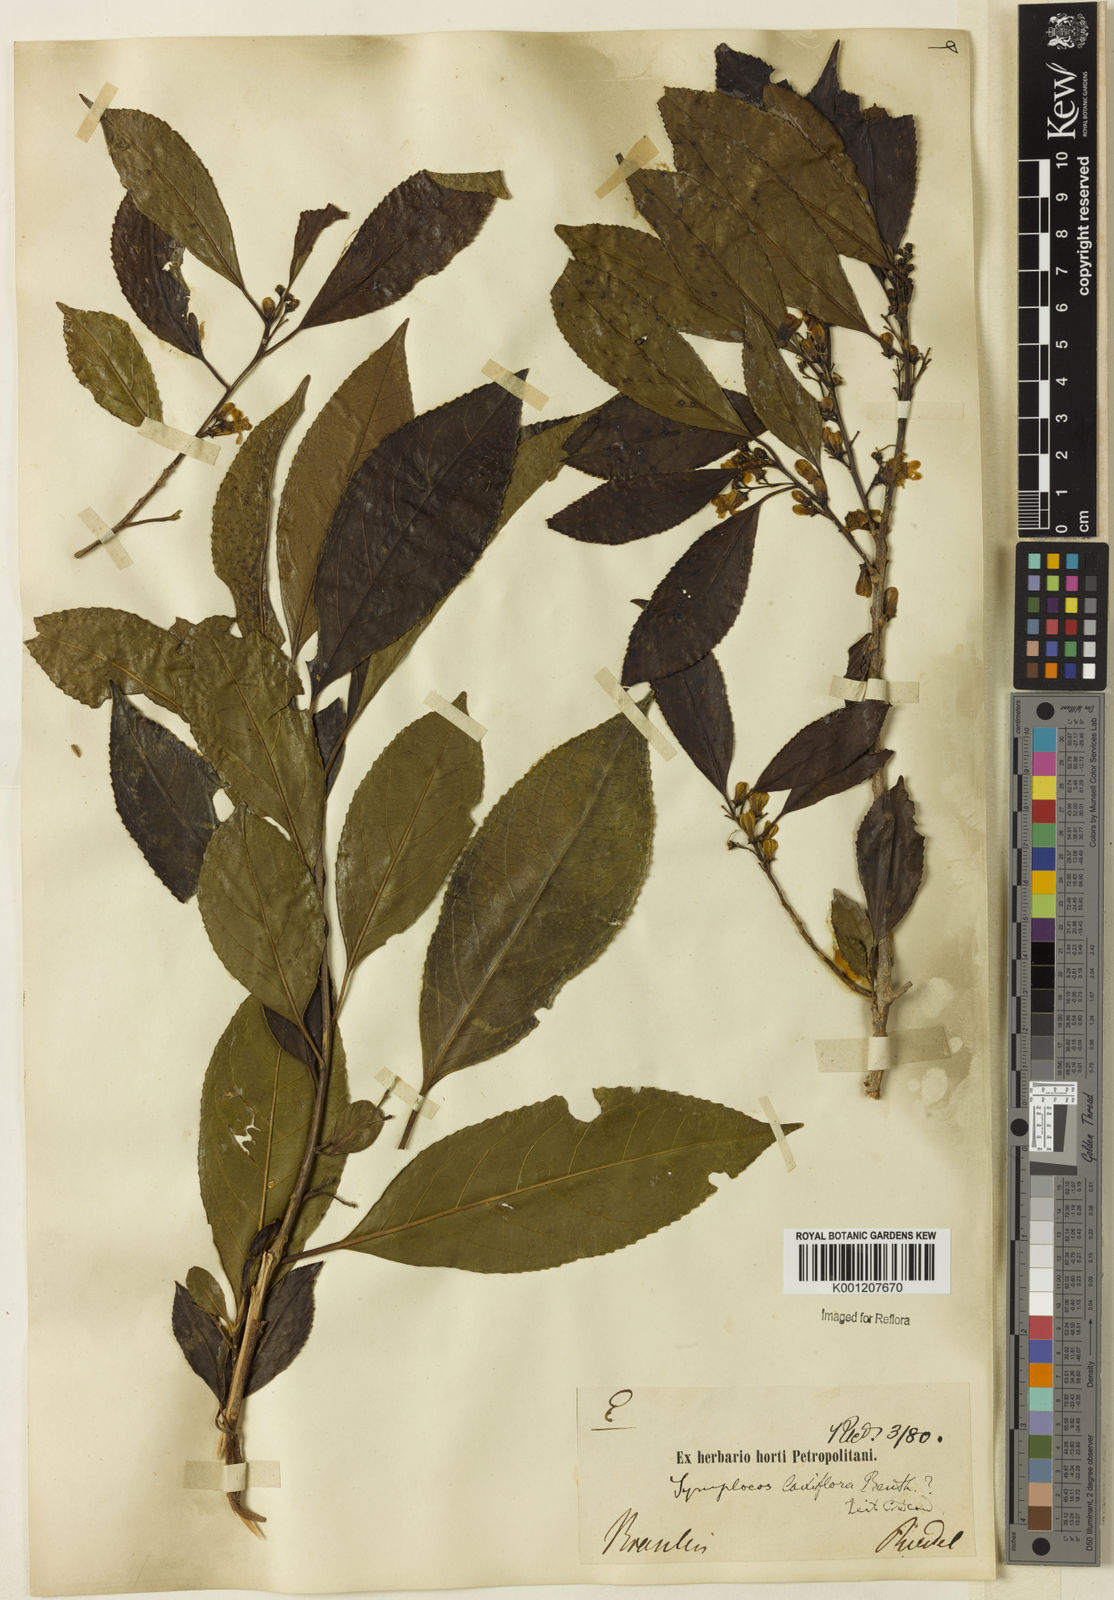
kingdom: Plantae
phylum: Tracheophyta
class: Magnoliopsida
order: Ericales
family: Symplocaceae
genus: Symplocos
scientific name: Symplocos laxiflora
